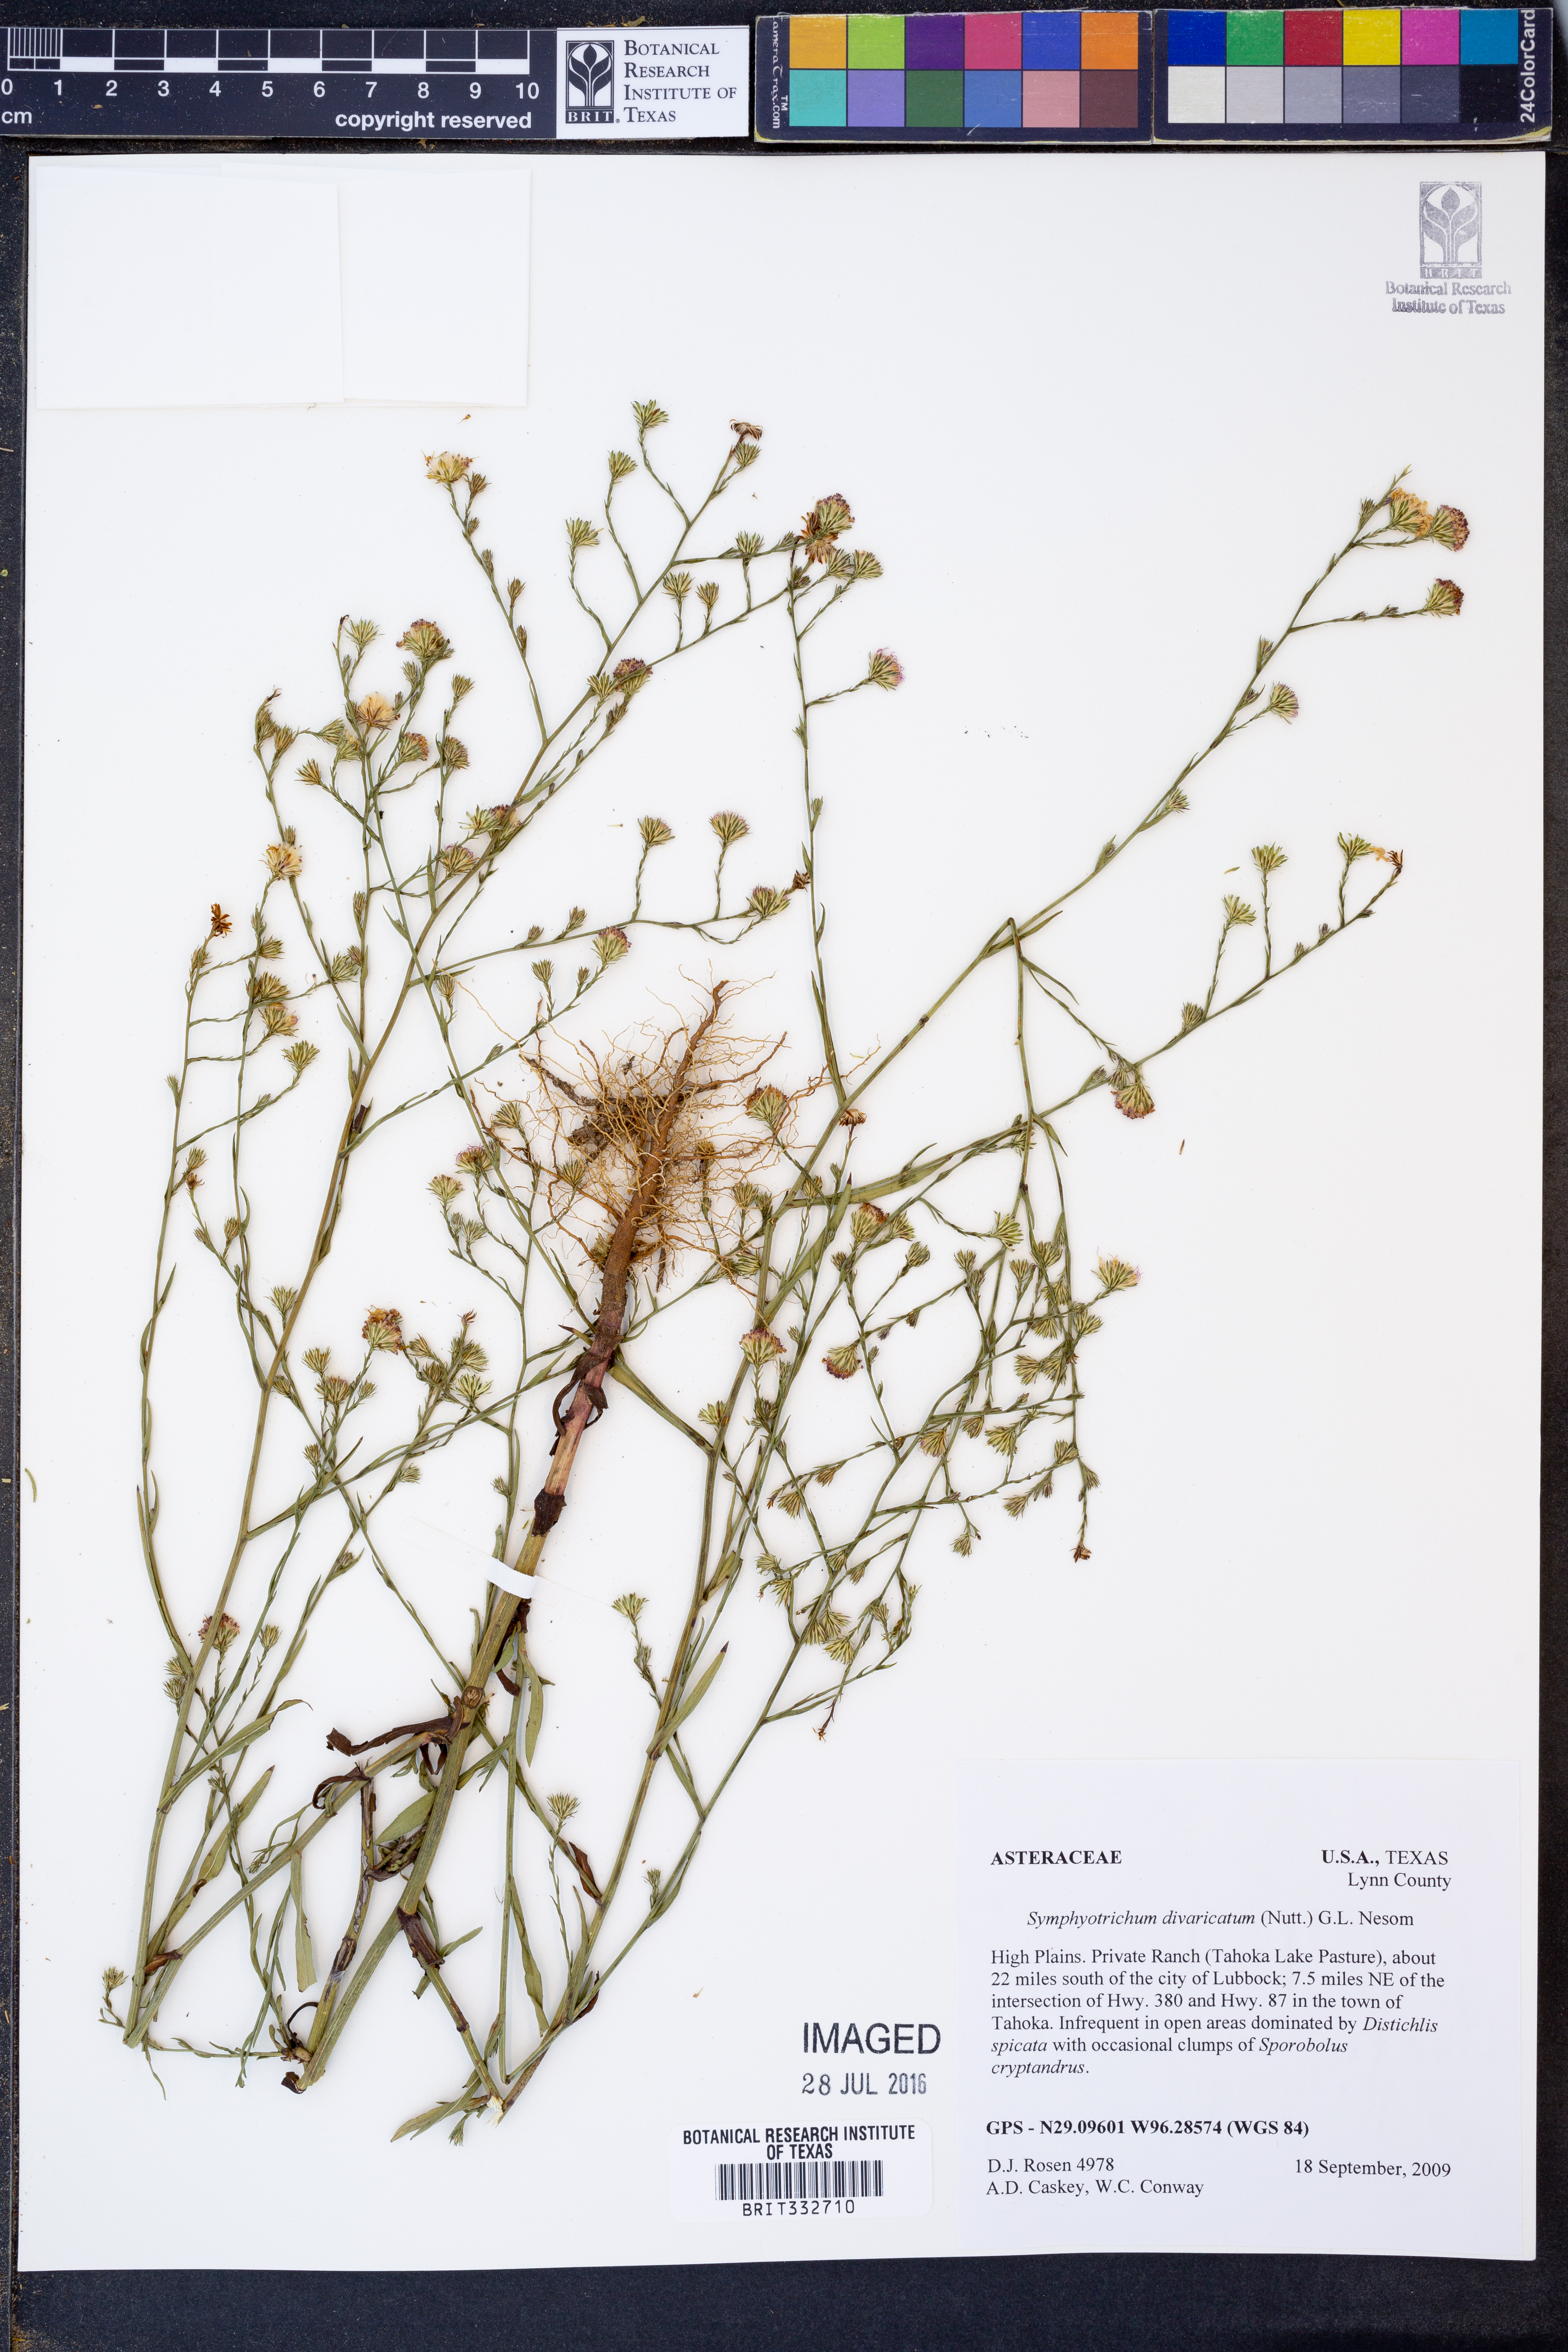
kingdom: Plantae
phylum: Tracheophyta
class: Magnoliopsida
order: Asterales
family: Asteraceae
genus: Symphyotrichum
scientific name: Symphyotrichum divaricatum
